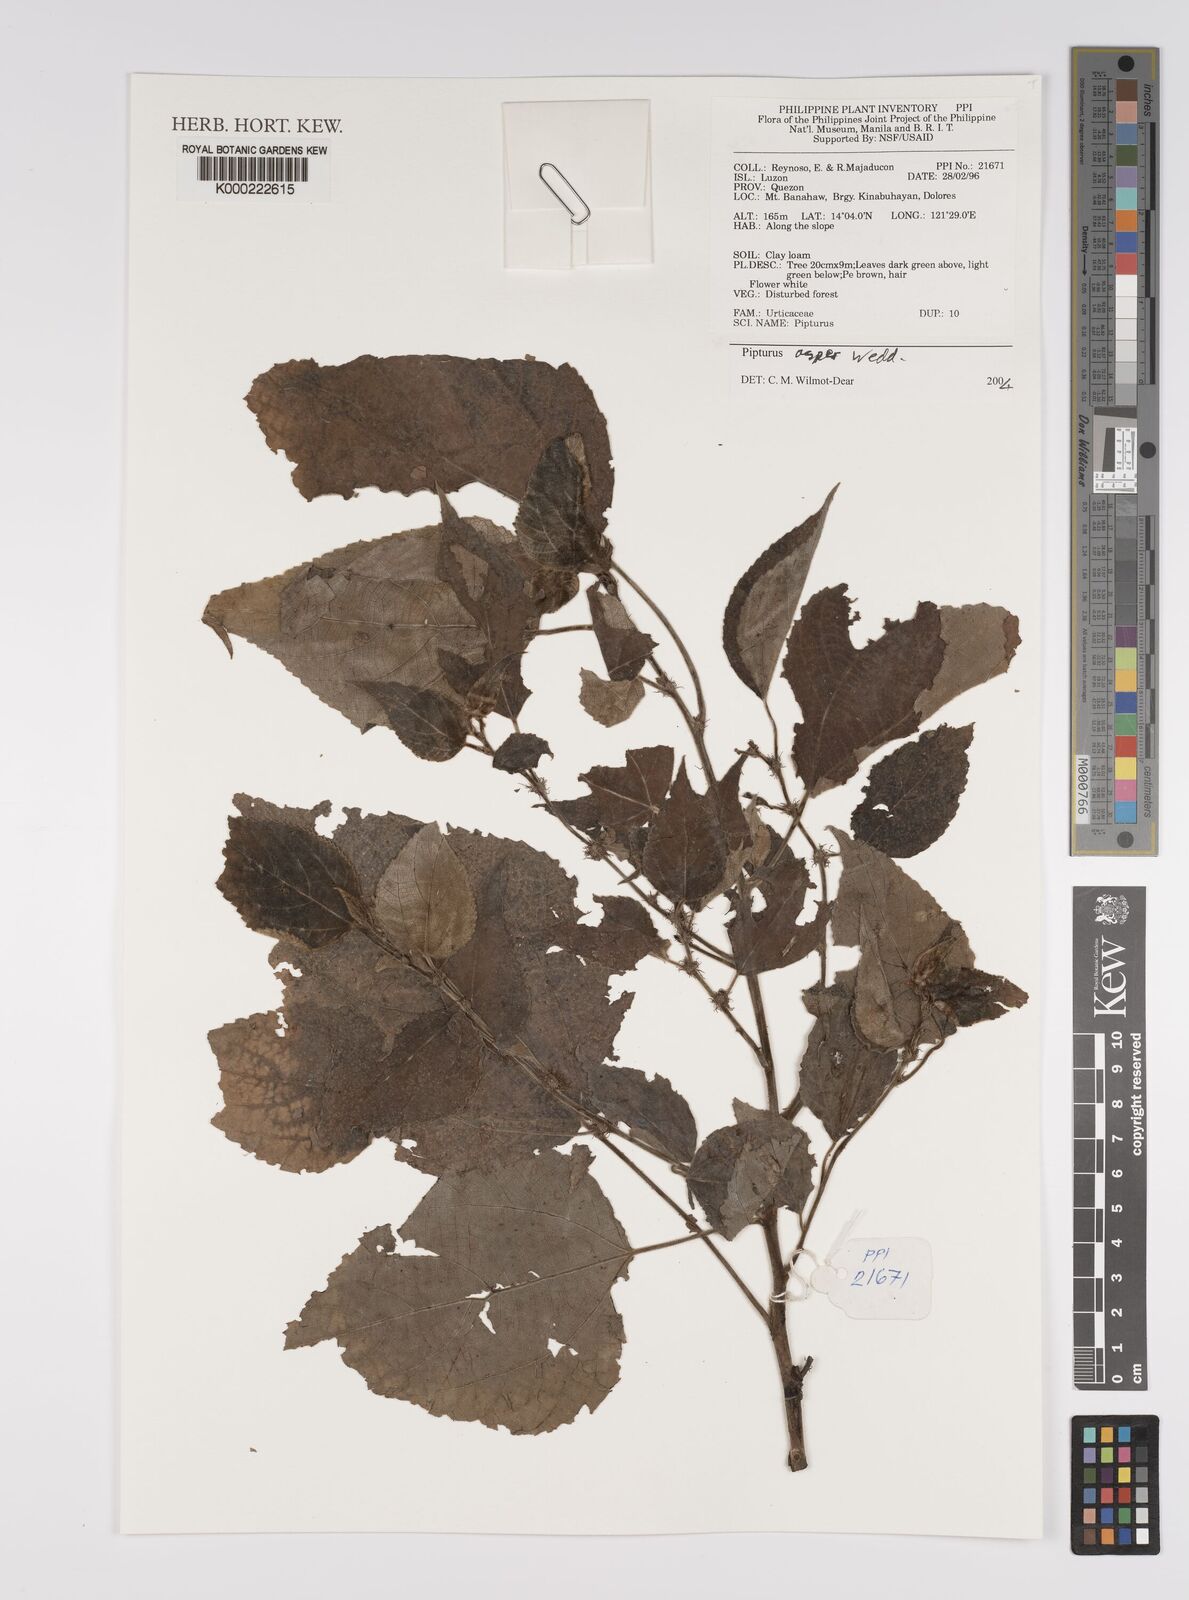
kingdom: Plantae
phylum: Tracheophyta
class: Magnoliopsida
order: Rosales
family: Urticaceae
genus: Pipturus
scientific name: Pipturus arborescens
